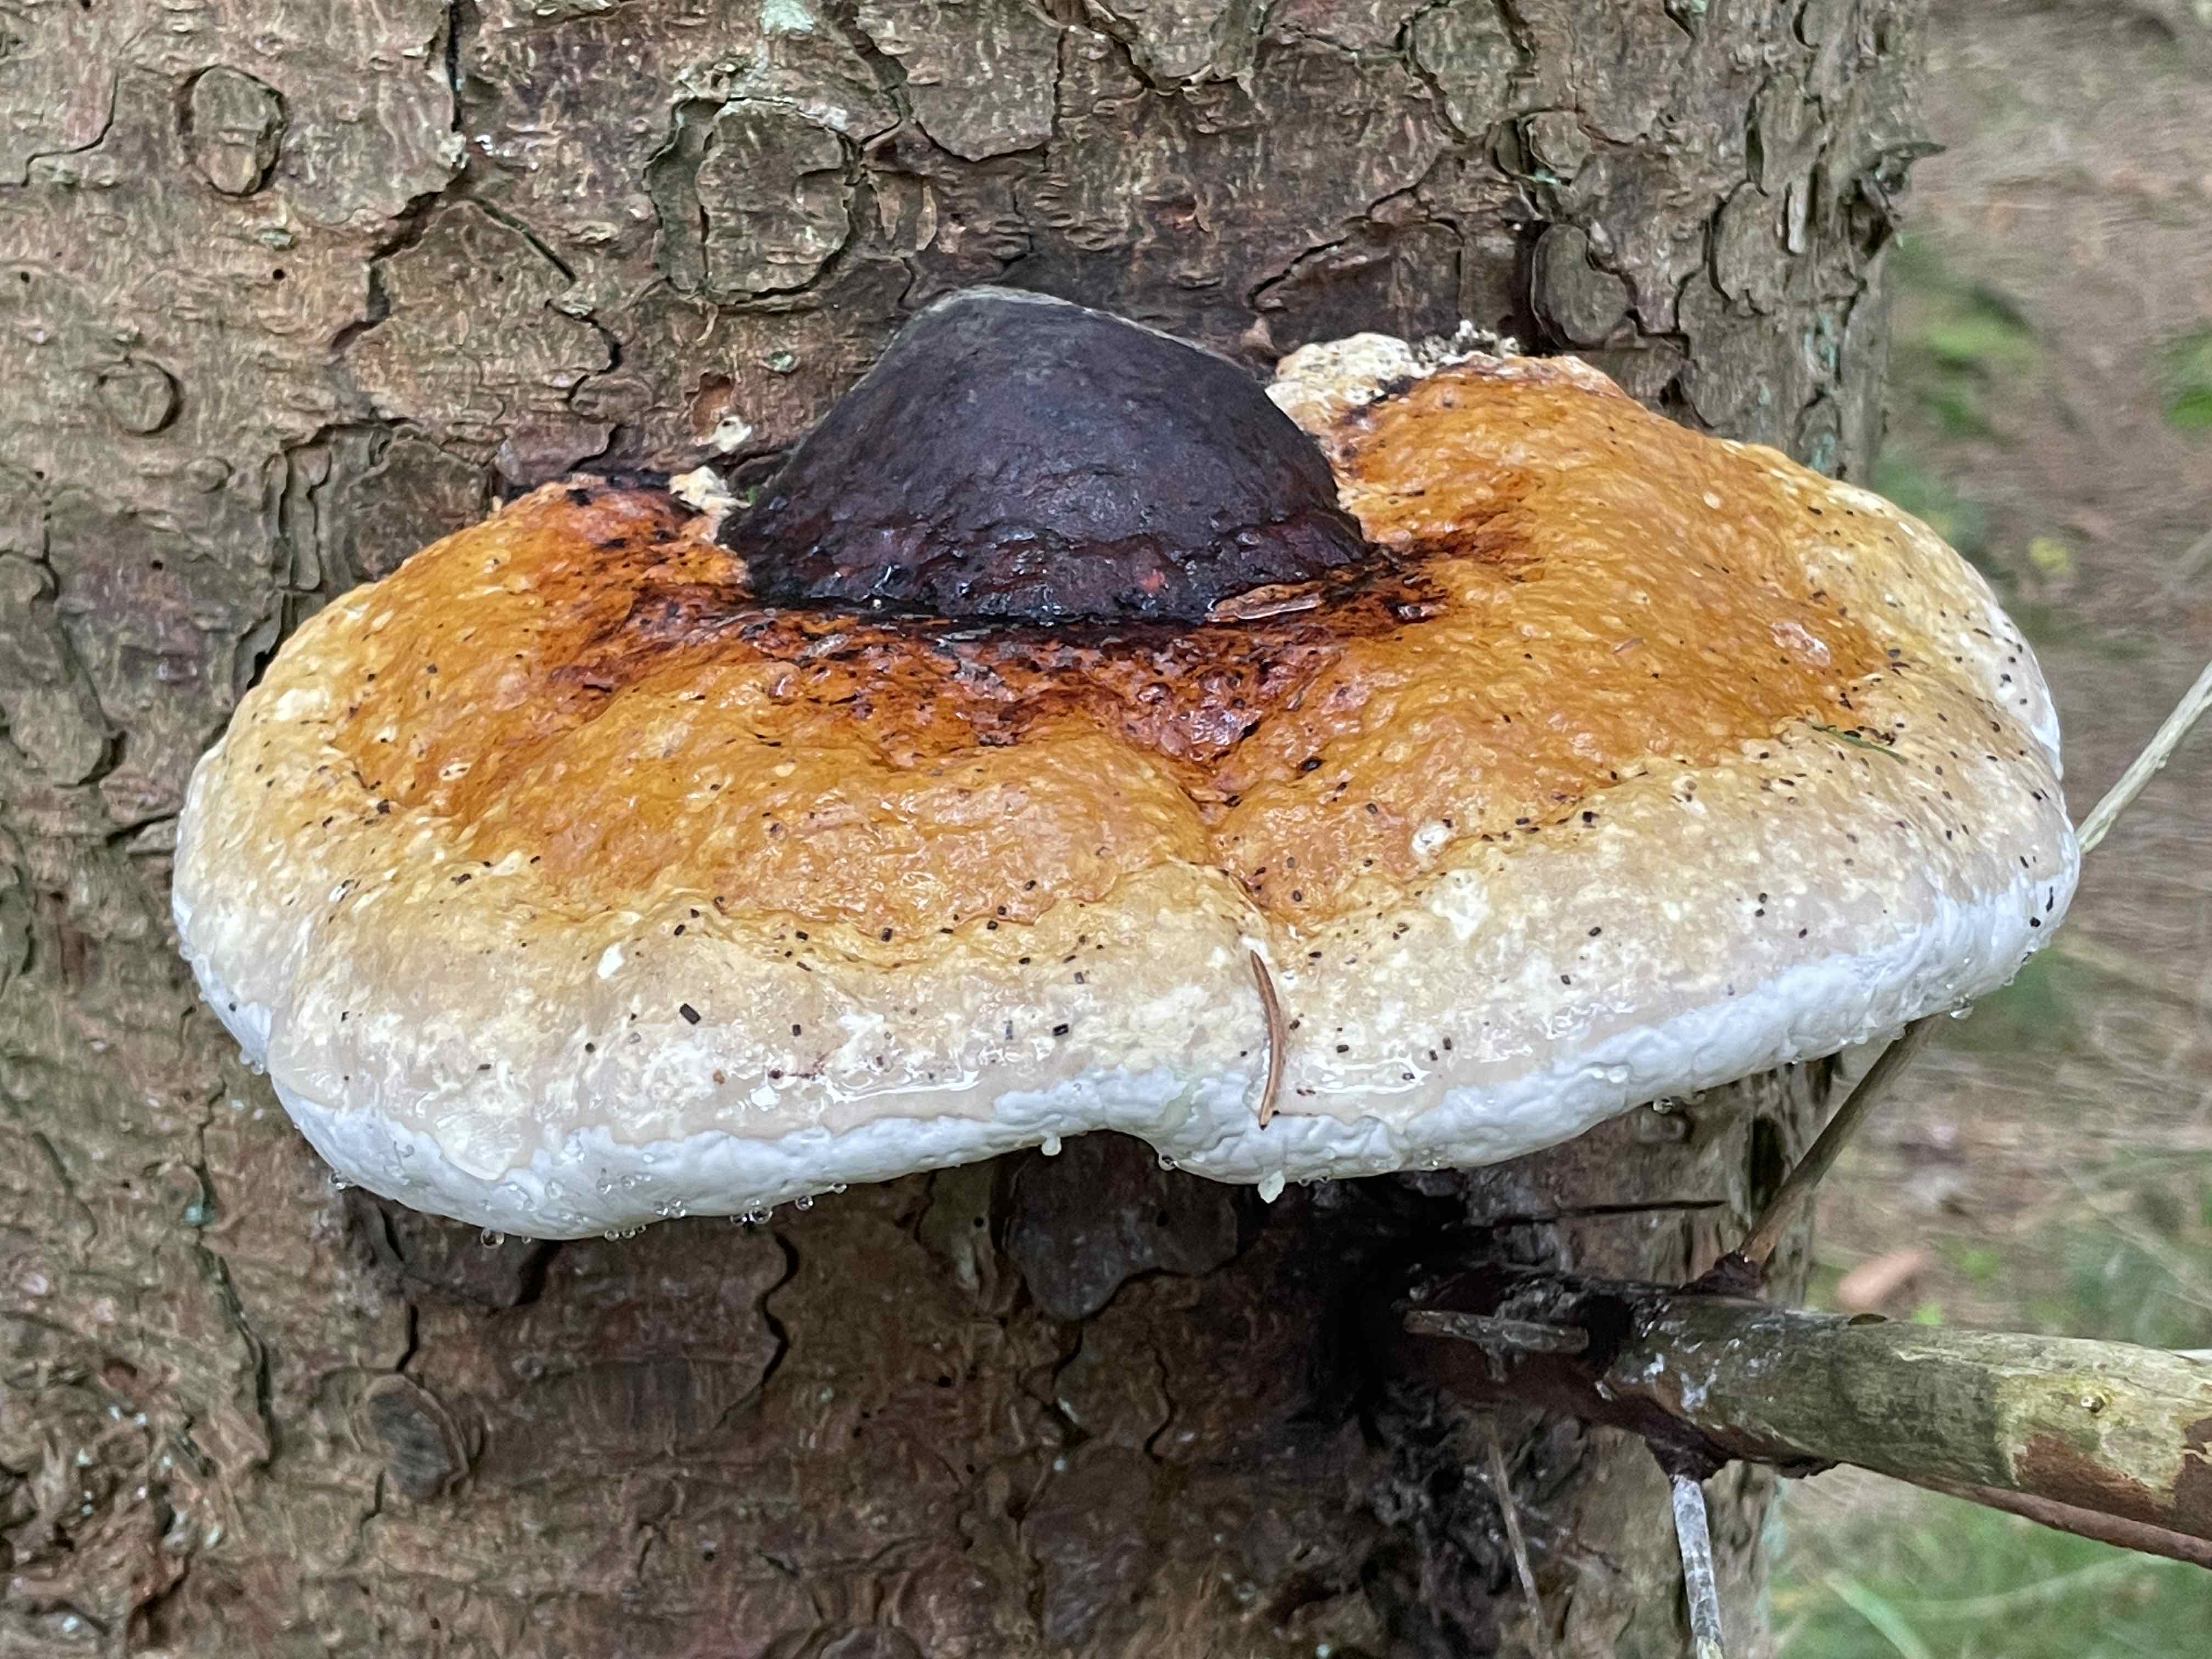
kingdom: Fungi
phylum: Basidiomycota
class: Agaricomycetes
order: Polyporales
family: Fomitopsidaceae
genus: Fomitopsis
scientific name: Fomitopsis pinicola
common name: randbæltet hovporesvamp
